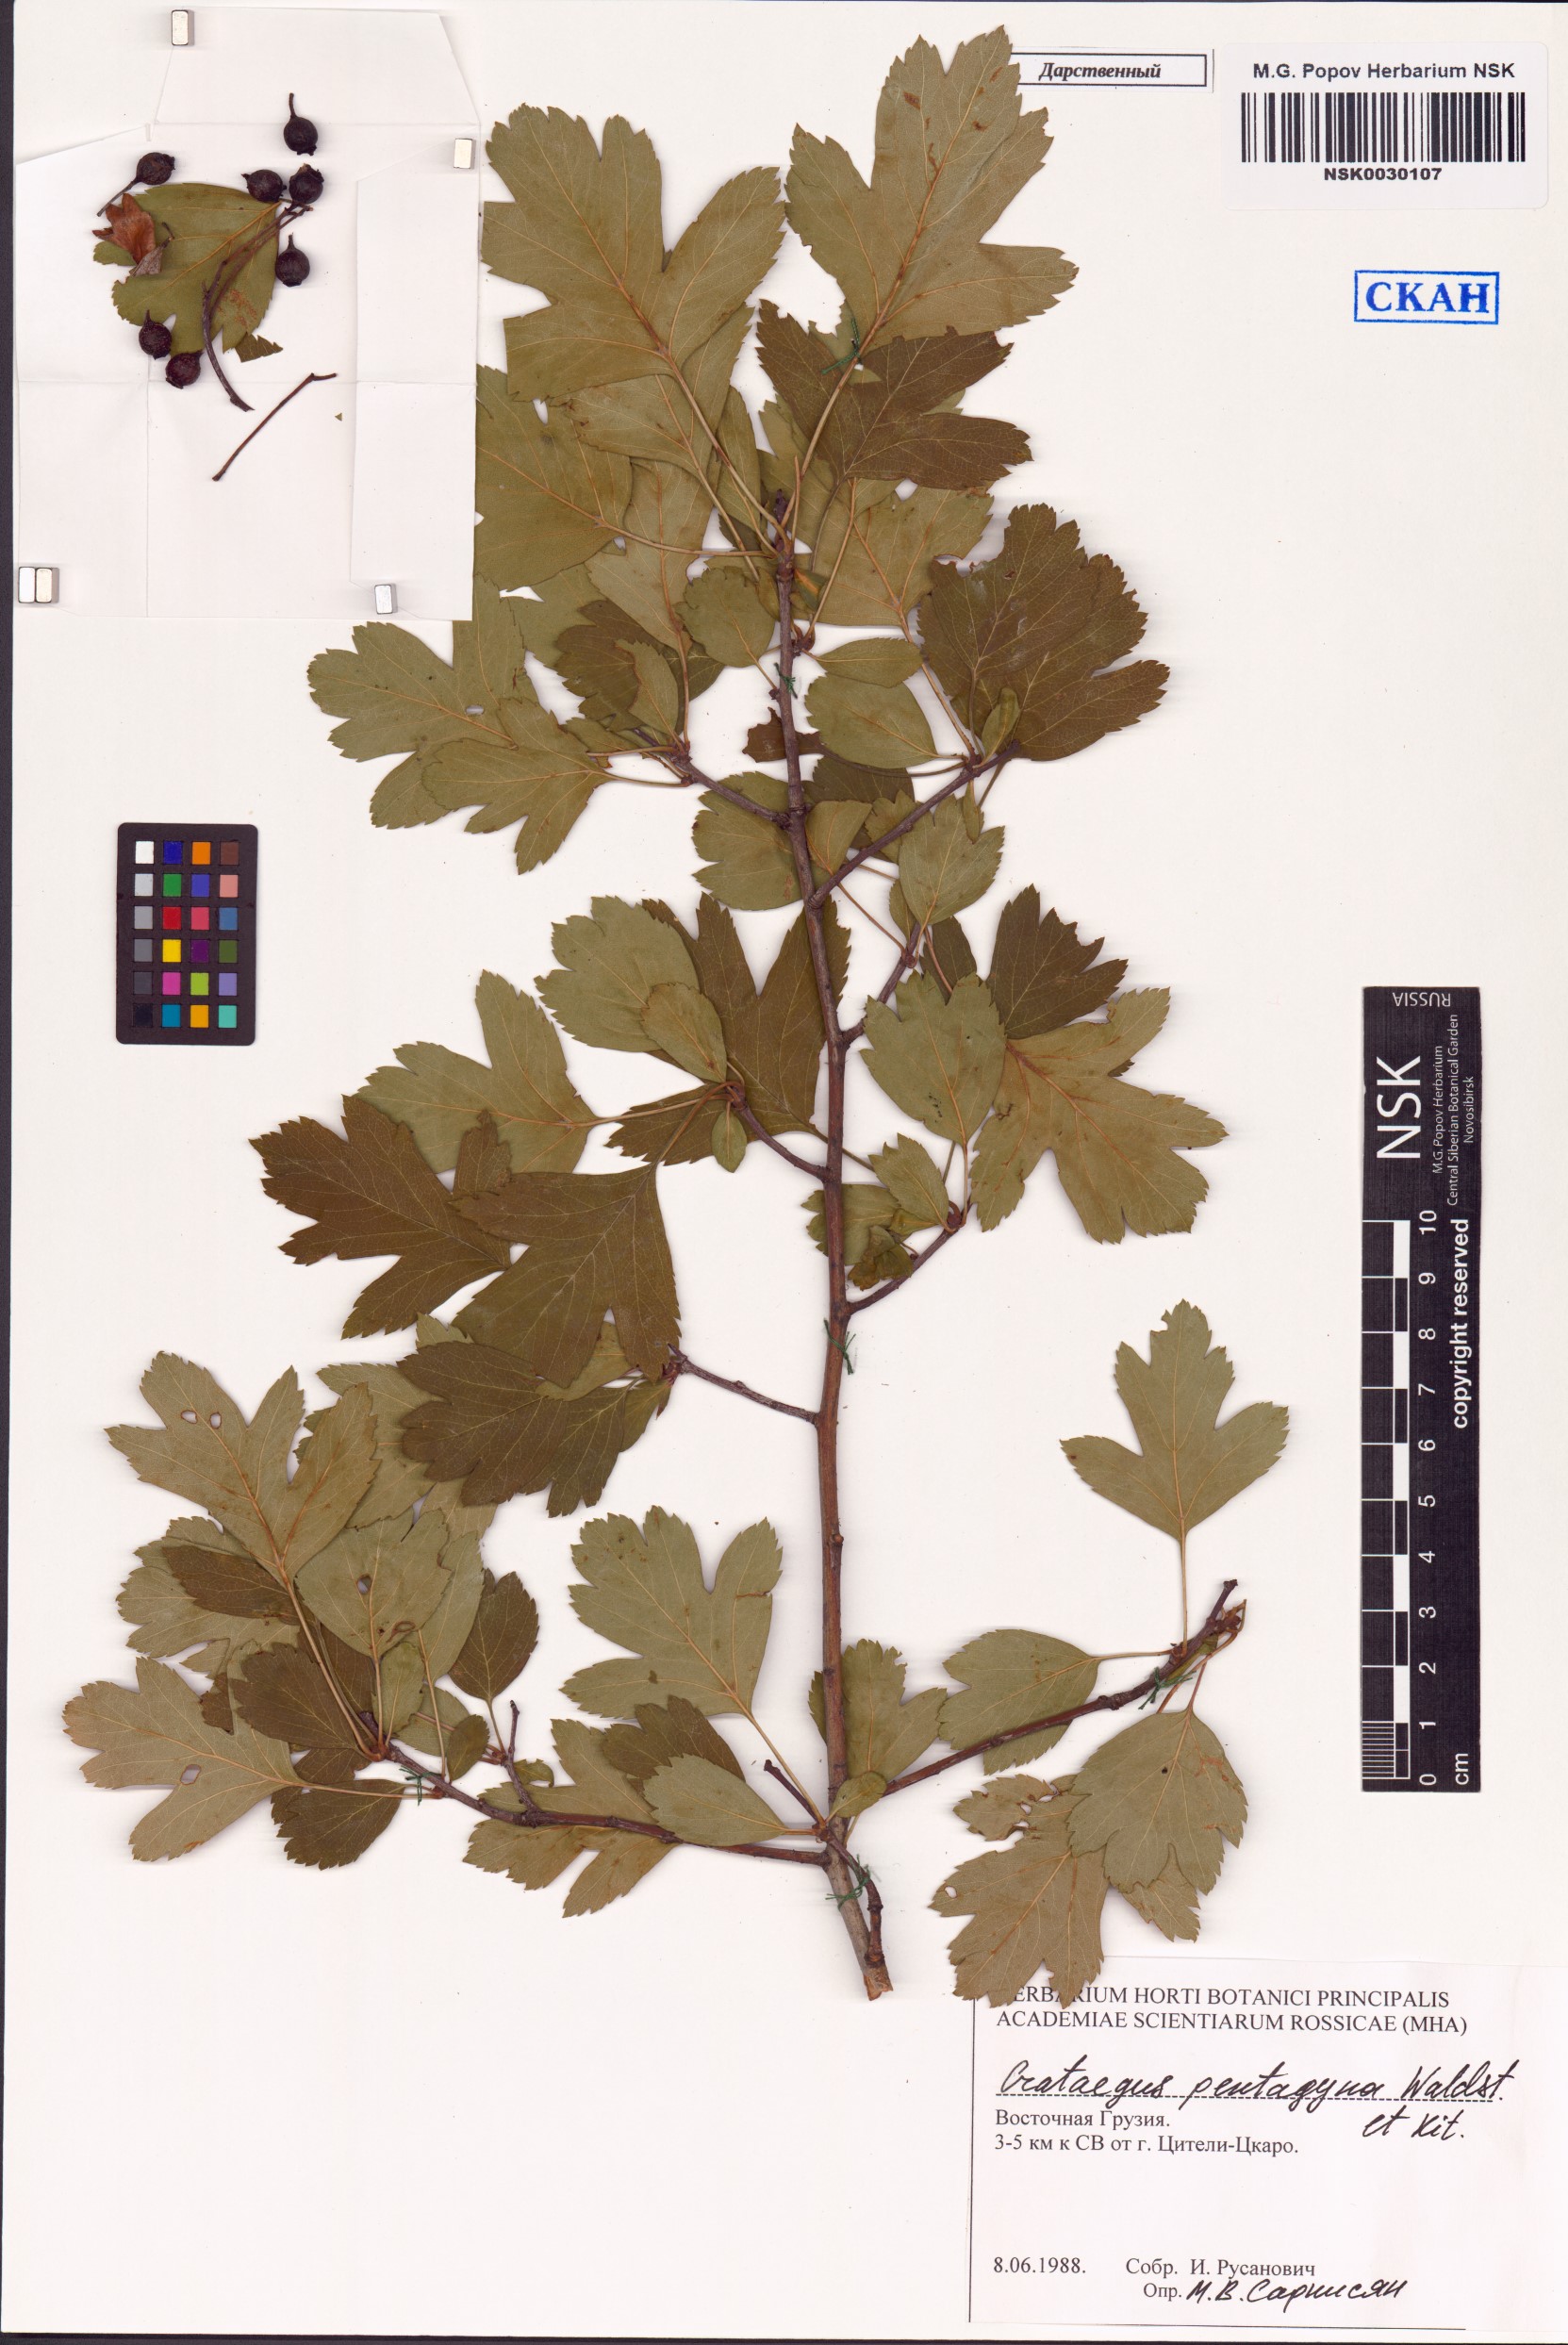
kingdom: Plantae
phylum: Tracheophyta
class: Magnoliopsida
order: Rosales
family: Rosaceae
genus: Crataegus
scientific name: Crataegus pentagyna
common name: Small-flowered black hawthorn
